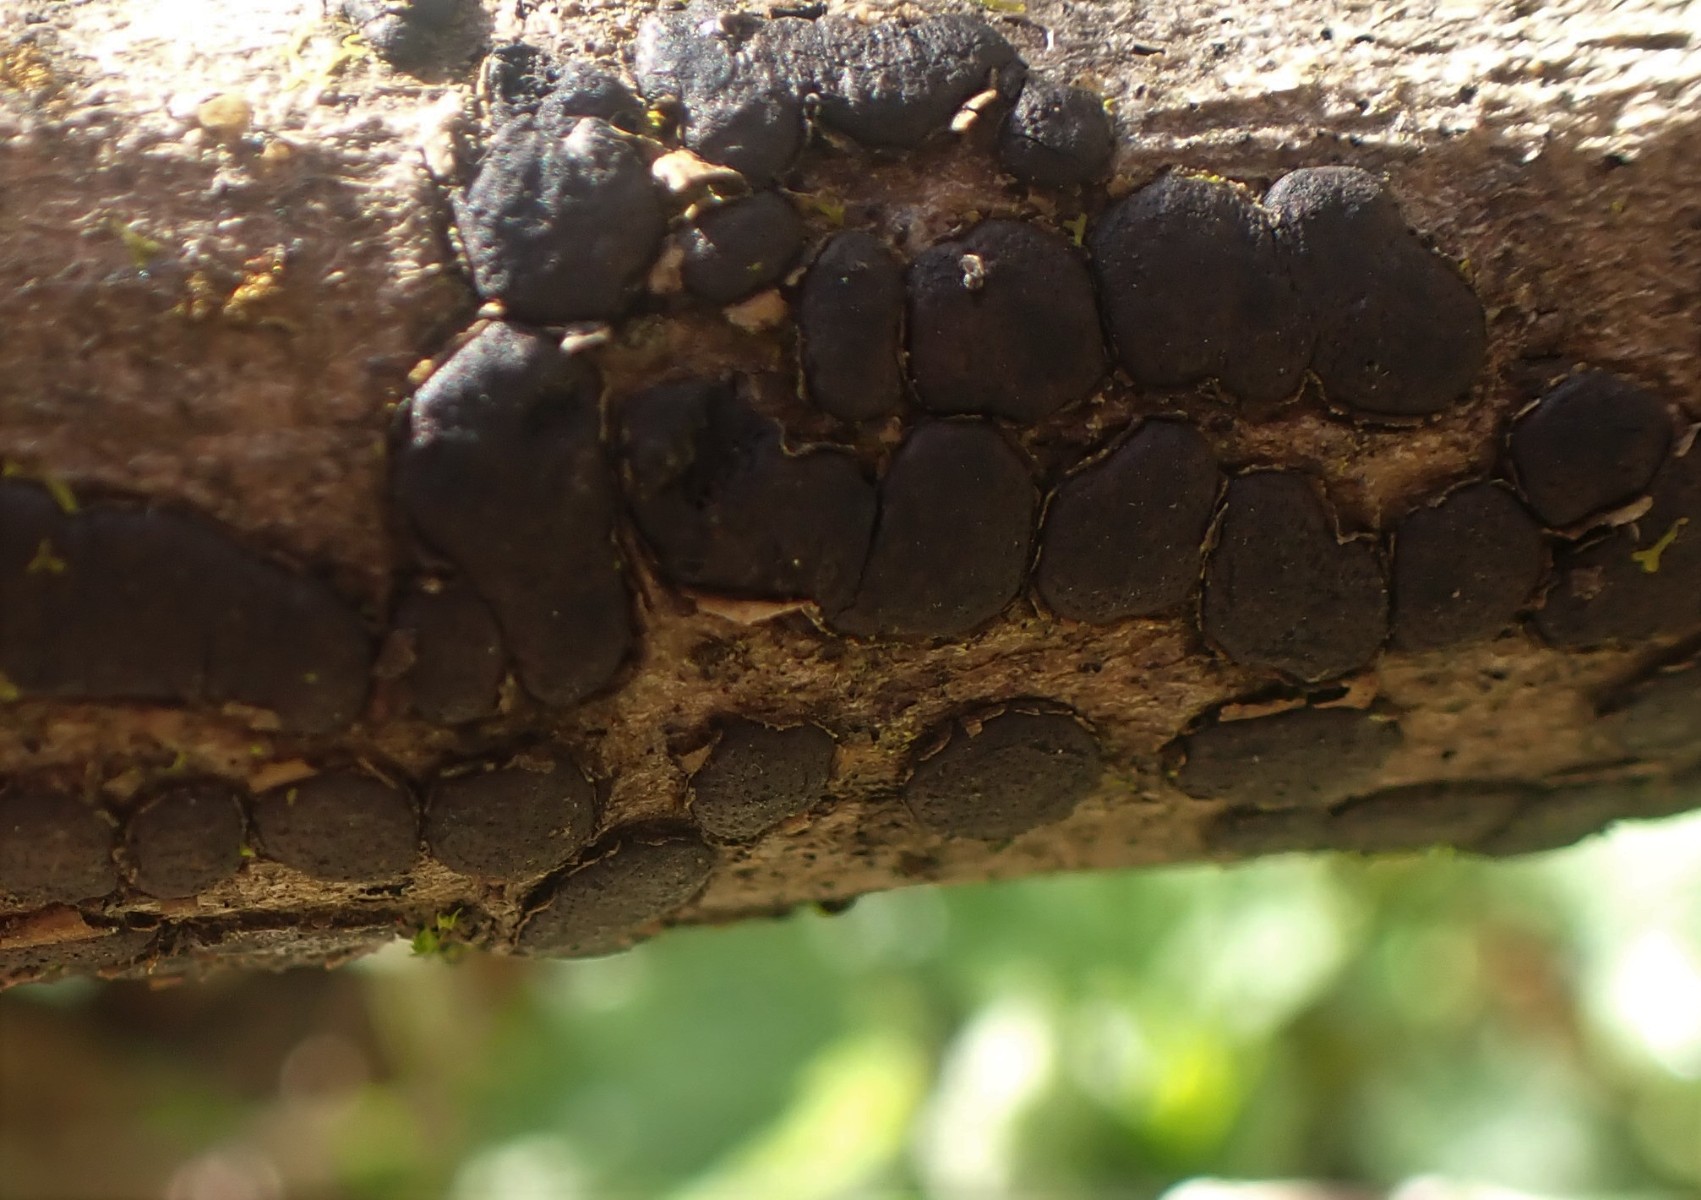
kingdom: Fungi
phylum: Ascomycota
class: Sordariomycetes
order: Xylariales
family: Diatrypaceae
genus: Diatrype
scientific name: Diatrype bullata
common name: pile-kulskorpe
